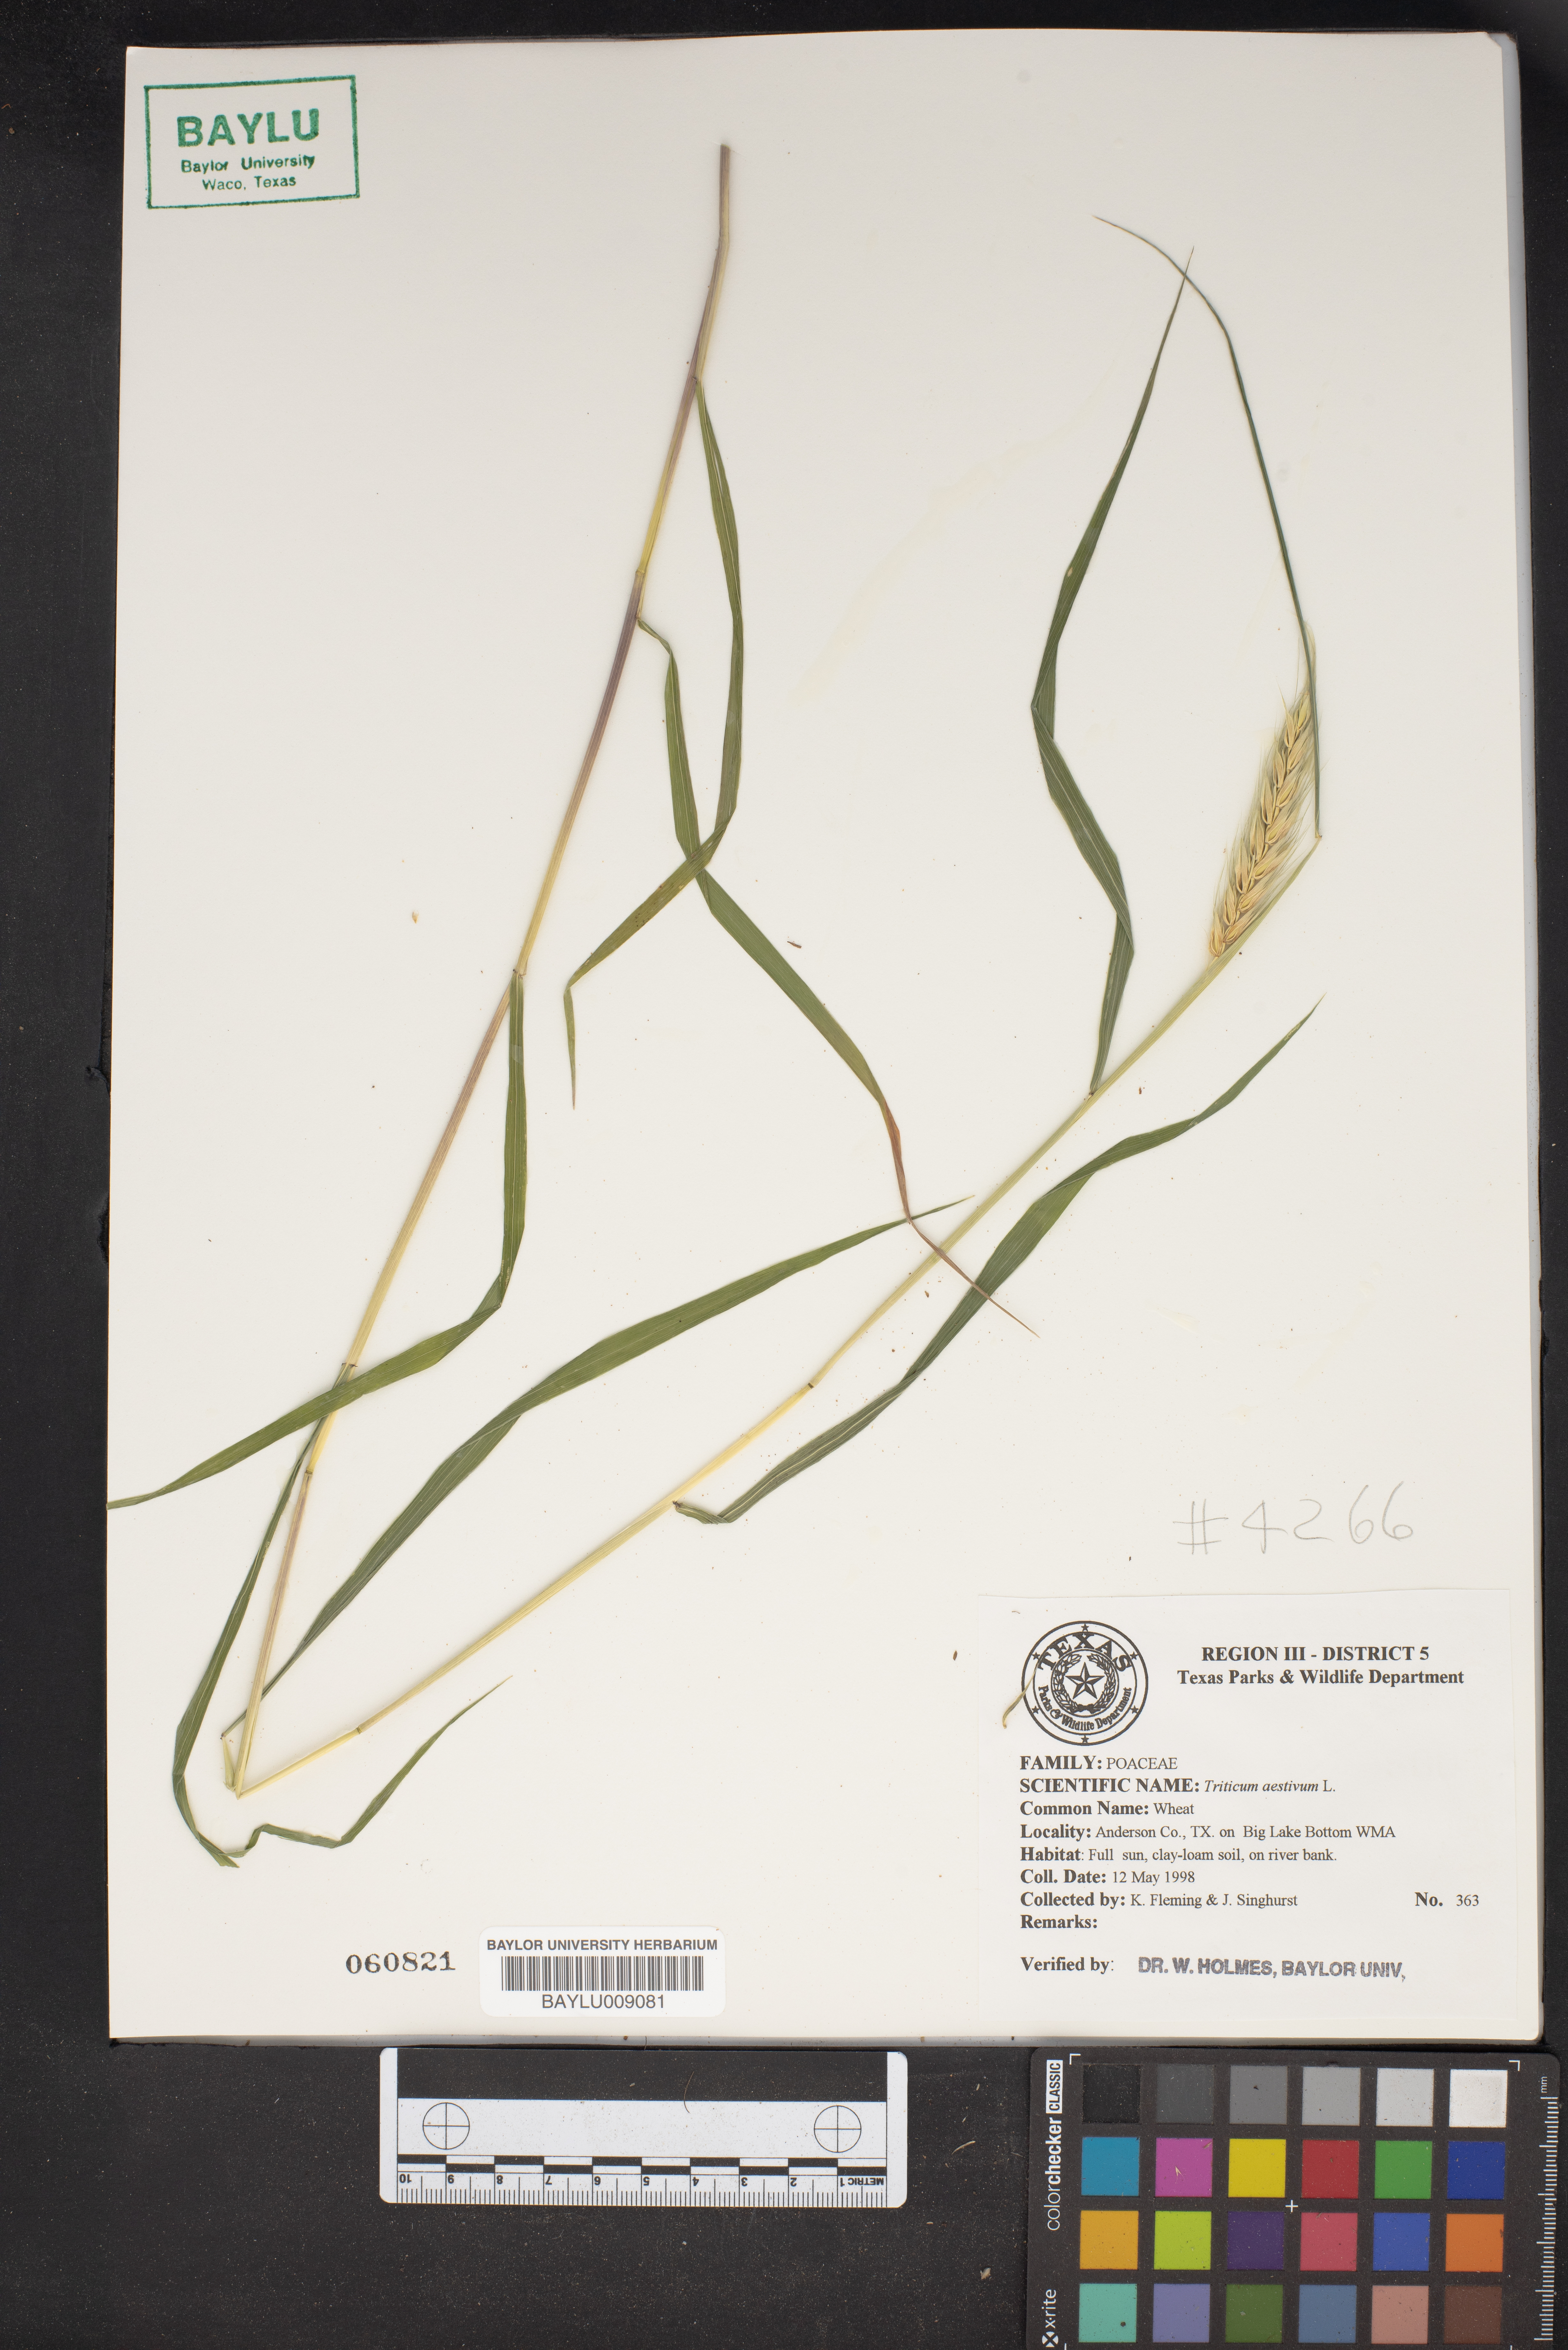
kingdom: Plantae
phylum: Tracheophyta
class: Liliopsida
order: Poales
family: Poaceae
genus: Triticum
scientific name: Triticum aestivum
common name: Common wheat
